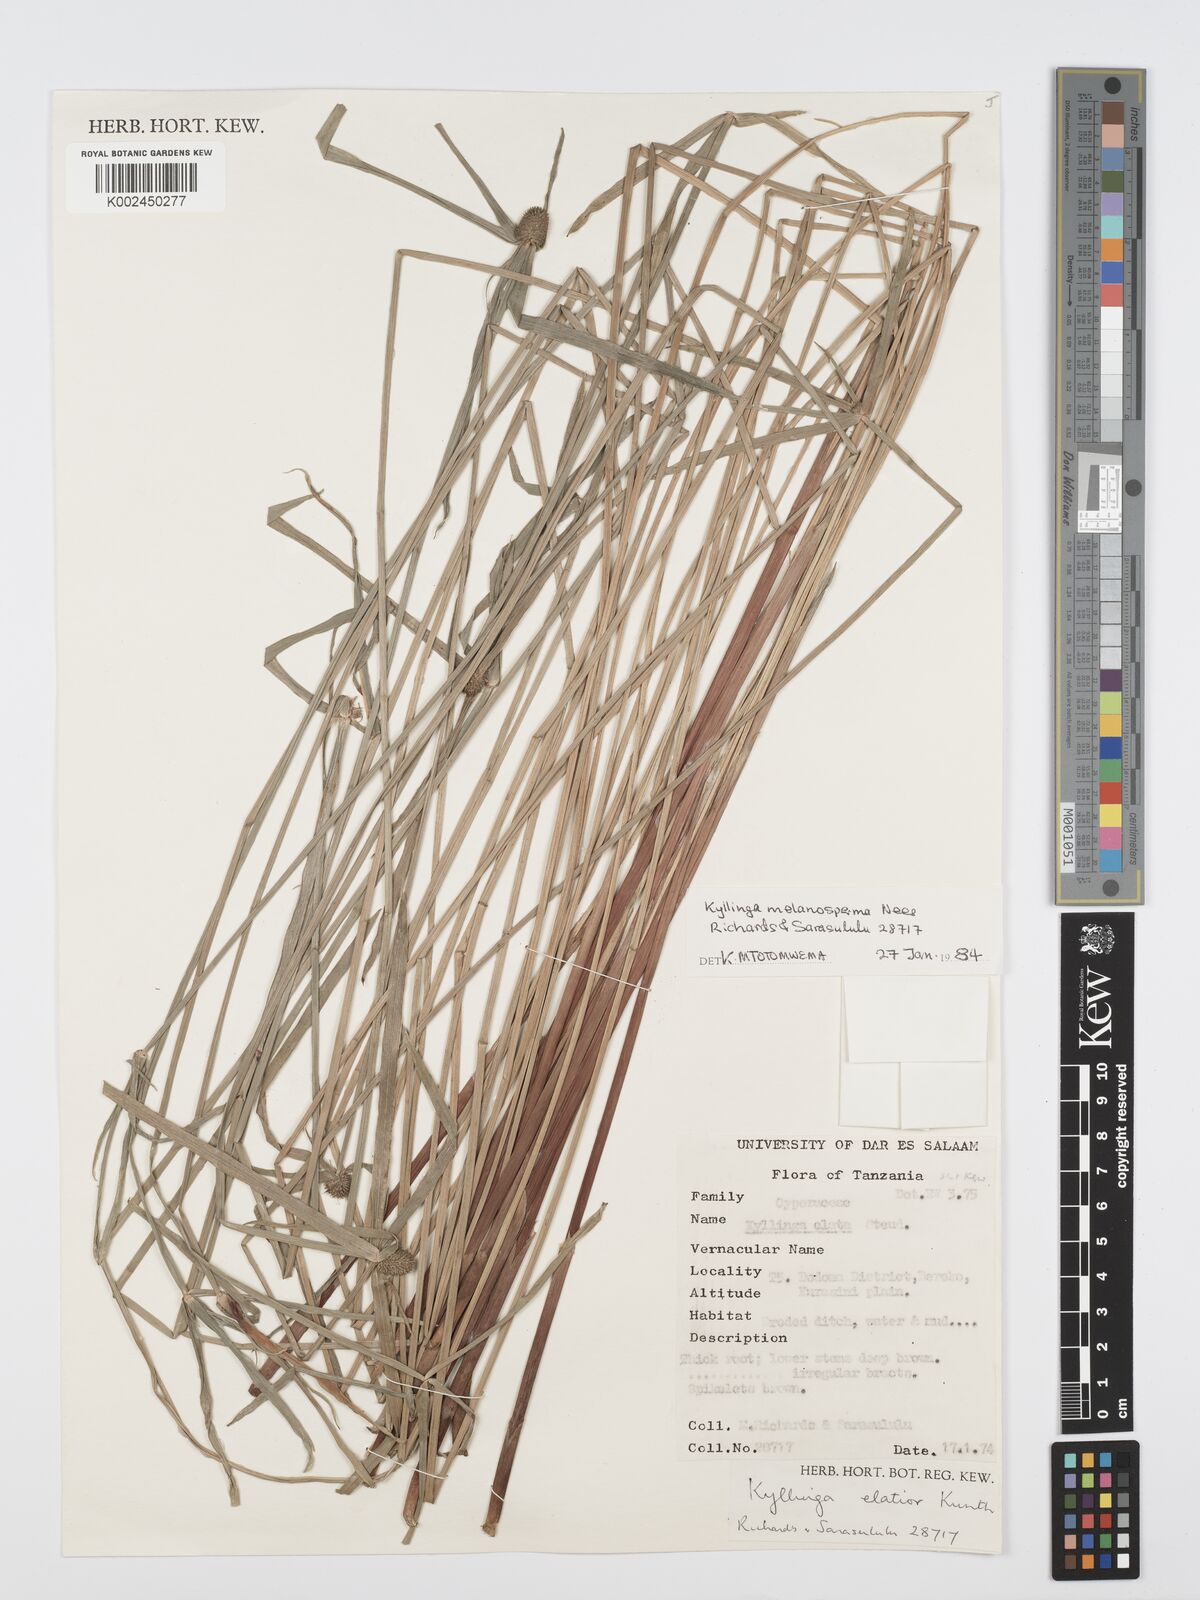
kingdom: Plantae
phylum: Tracheophyta
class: Liliopsida
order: Poales
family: Cyperaceae
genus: Cyperus
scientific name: Cyperus
